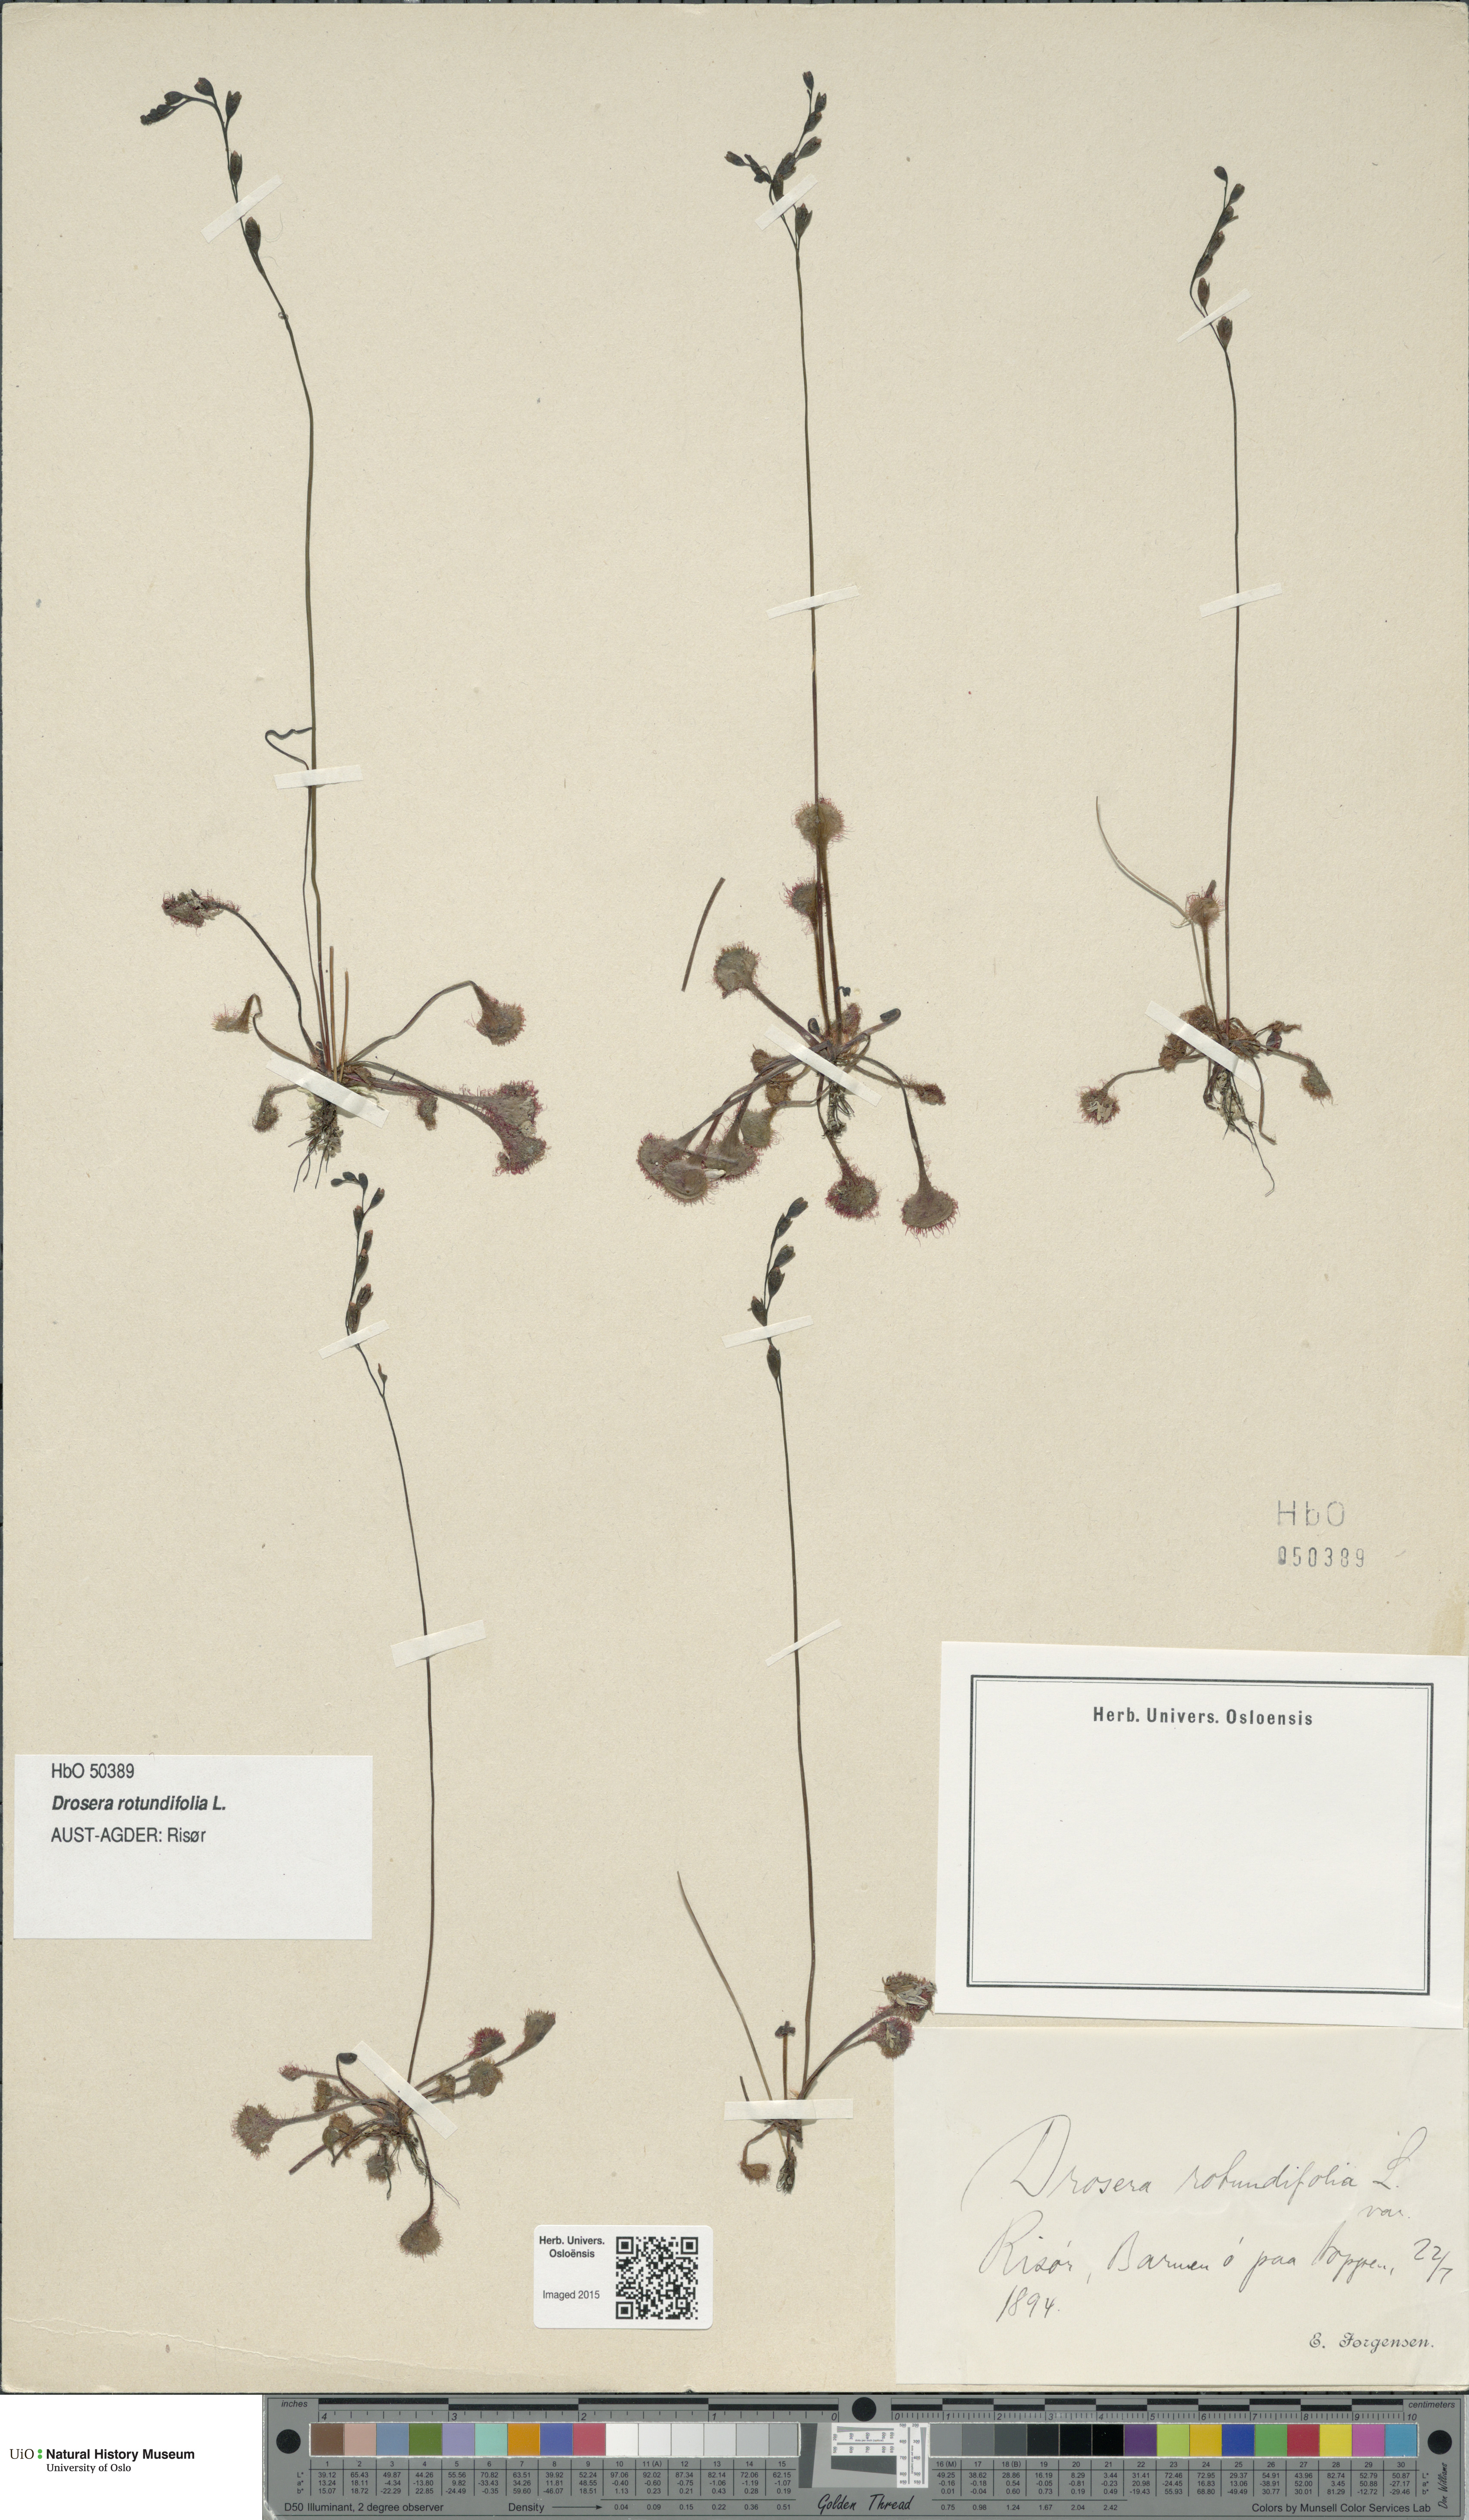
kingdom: Plantae
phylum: Tracheophyta
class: Magnoliopsida
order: Caryophyllales
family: Droseraceae
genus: Drosera
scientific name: Drosera rotundifolia
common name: Round-leaved sundew
